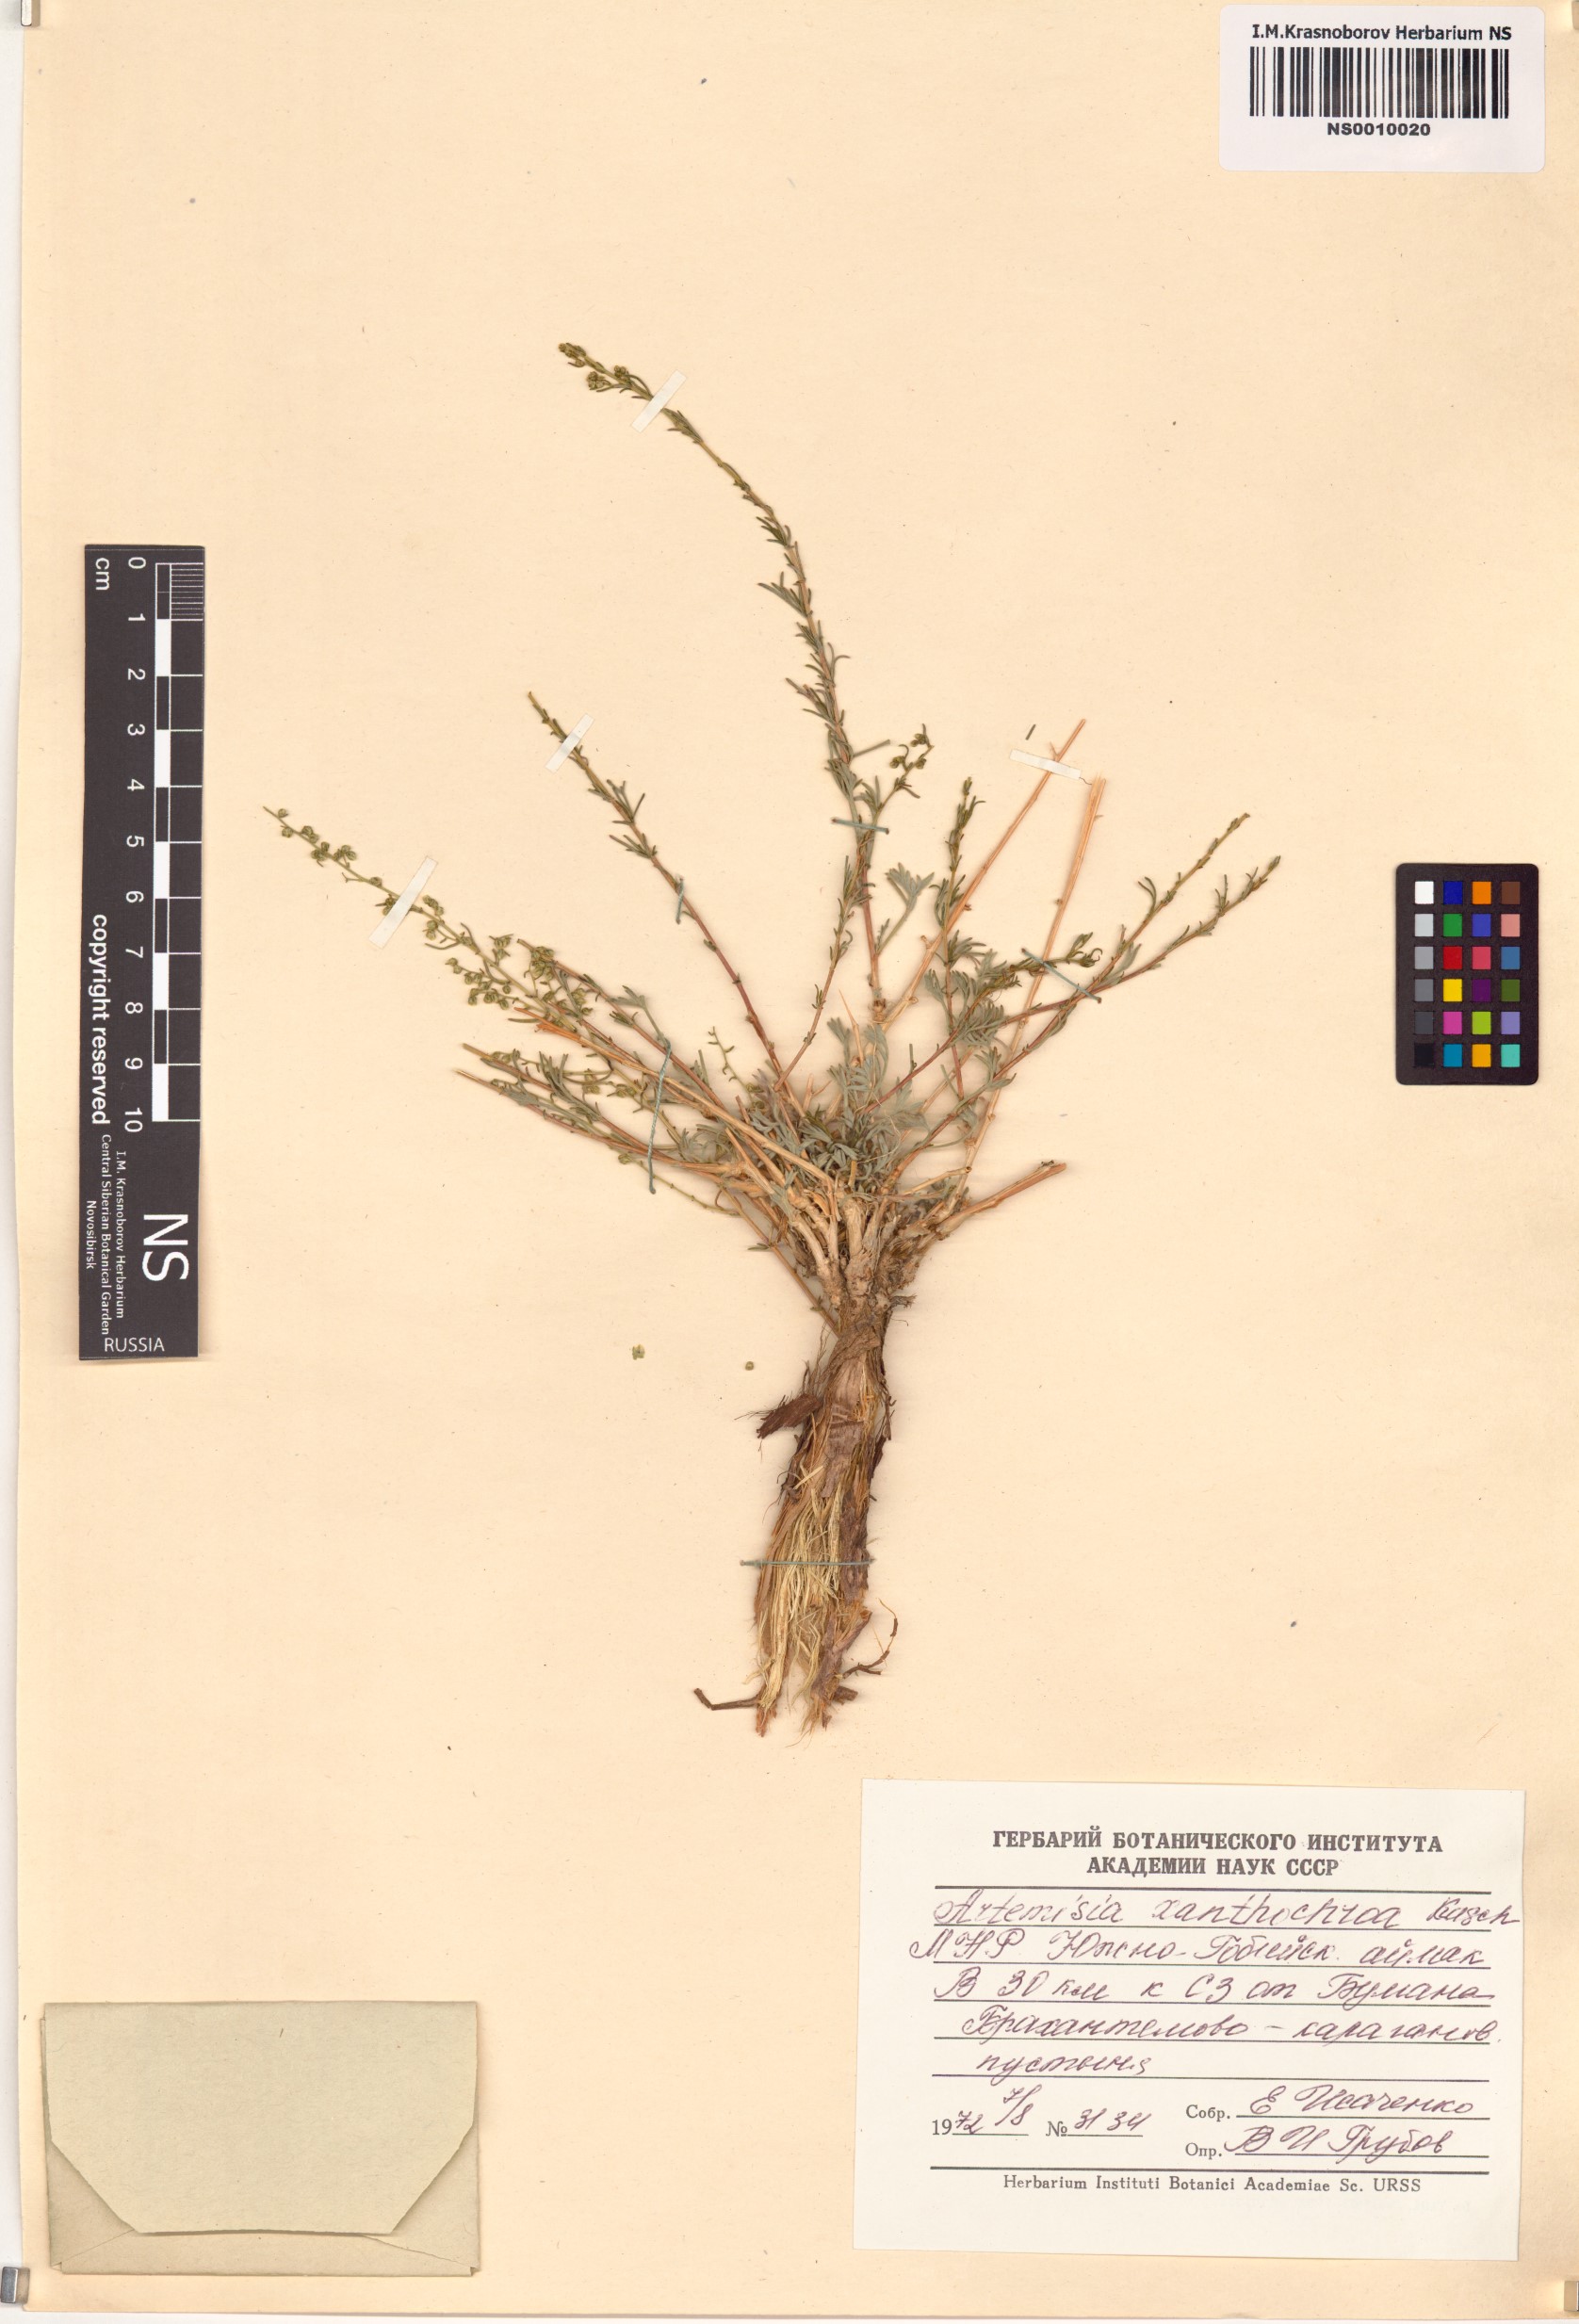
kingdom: Plantae
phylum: Tracheophyta
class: Magnoliopsida
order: Asterales
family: Asteraceae
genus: Artemisia
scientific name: Artemisia xanthochroa
